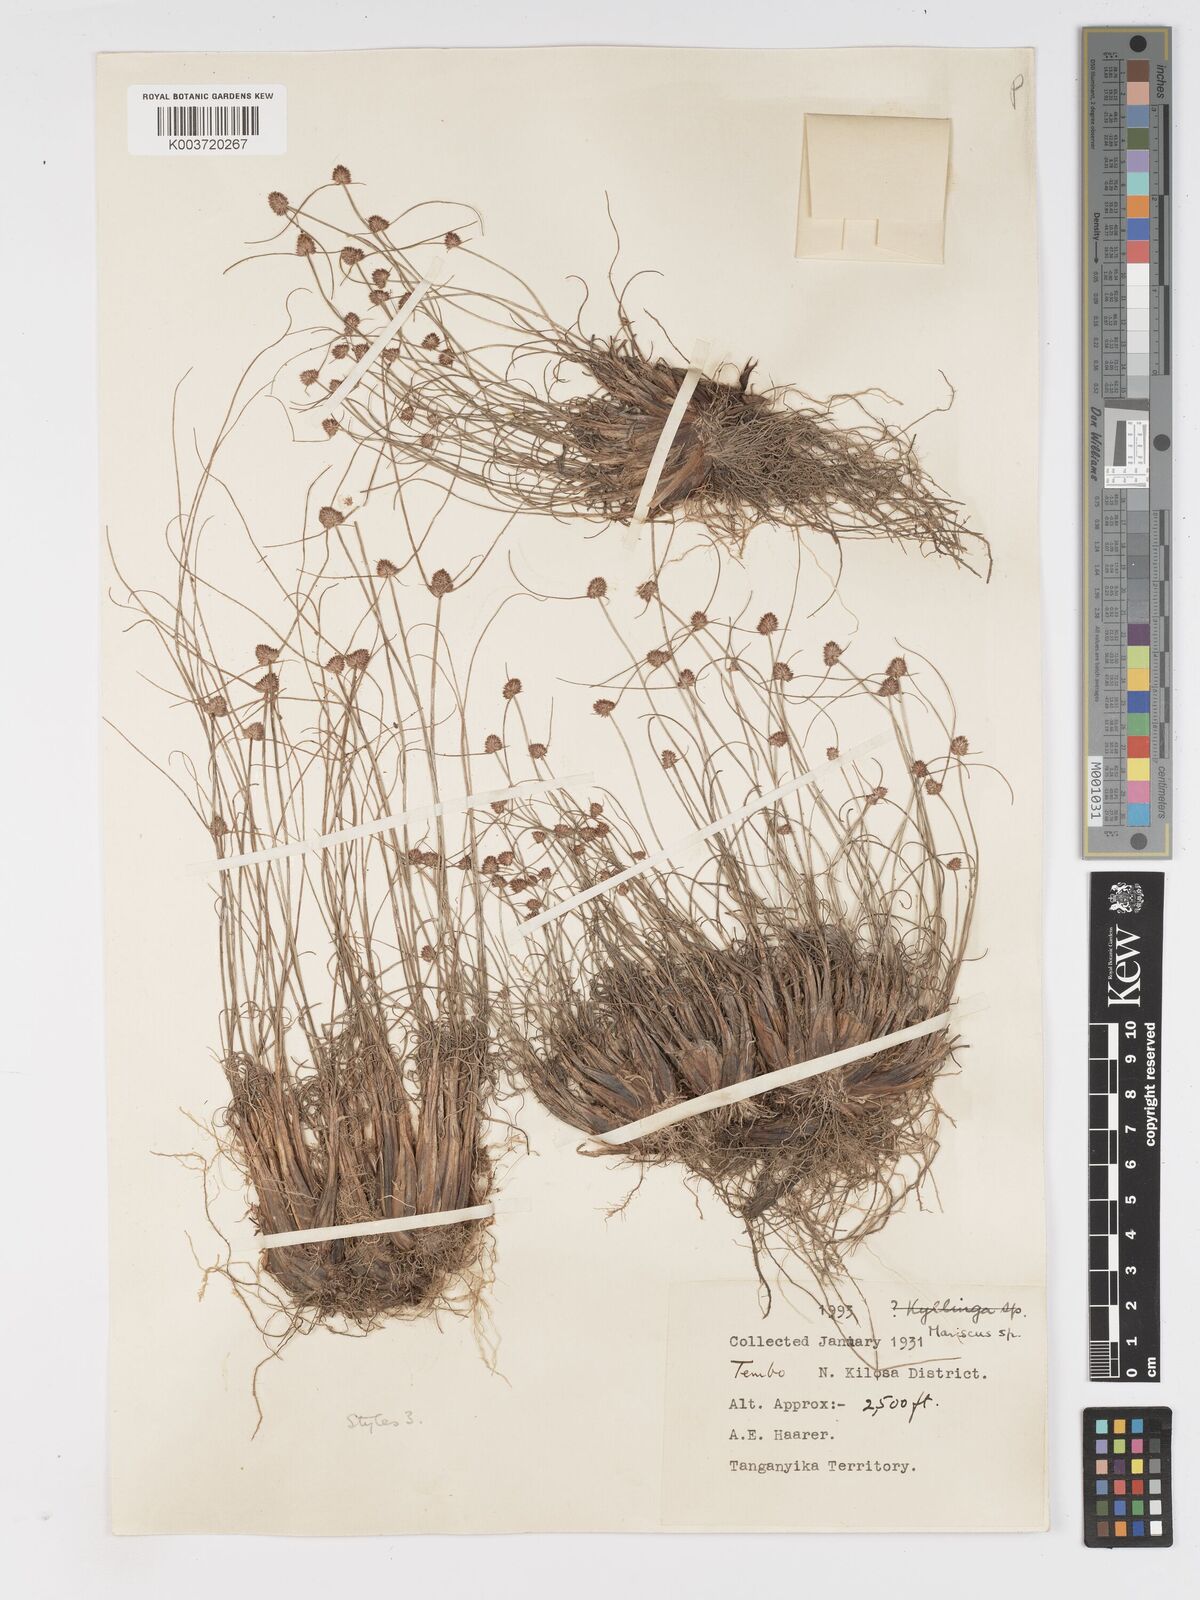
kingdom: Plantae
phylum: Tracheophyta
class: Liliopsida
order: Poales
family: Cyperaceae
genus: Cyperus
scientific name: Cyperus
